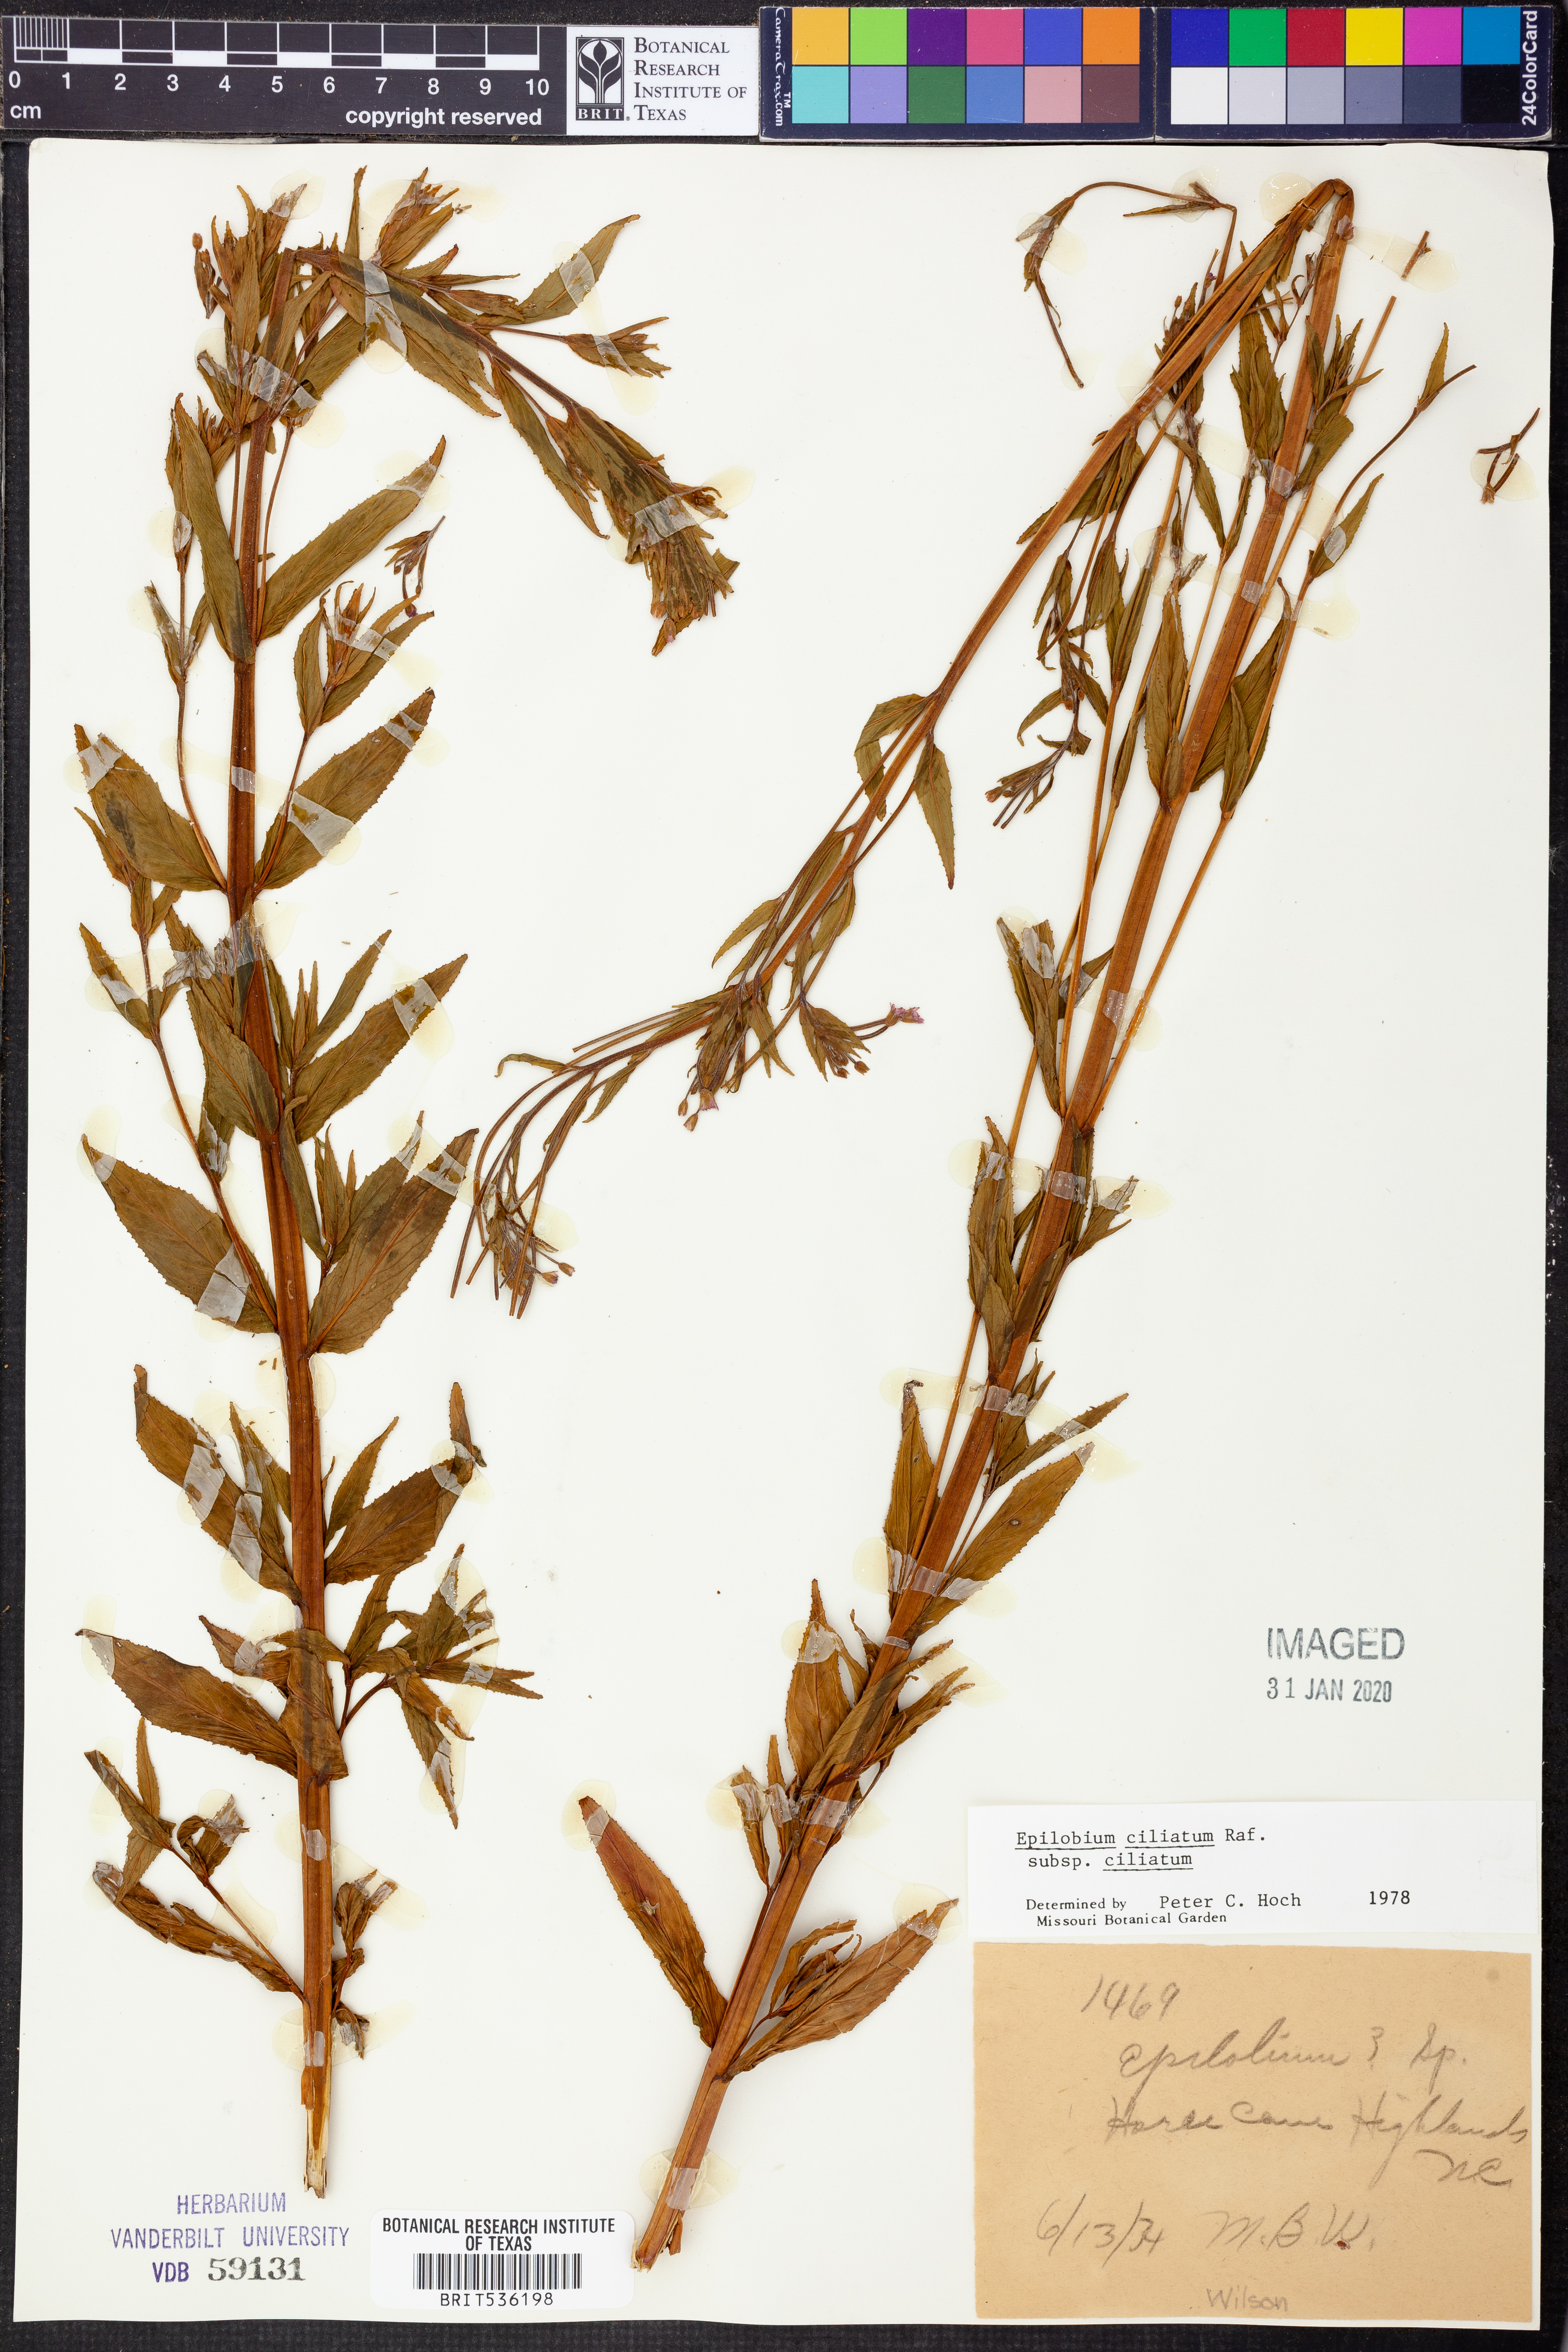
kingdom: Plantae
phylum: Tracheophyta
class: Magnoliopsida
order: Myrtales
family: Onagraceae
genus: Epilobium
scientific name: Epilobium ciliatum
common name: American willowherb
